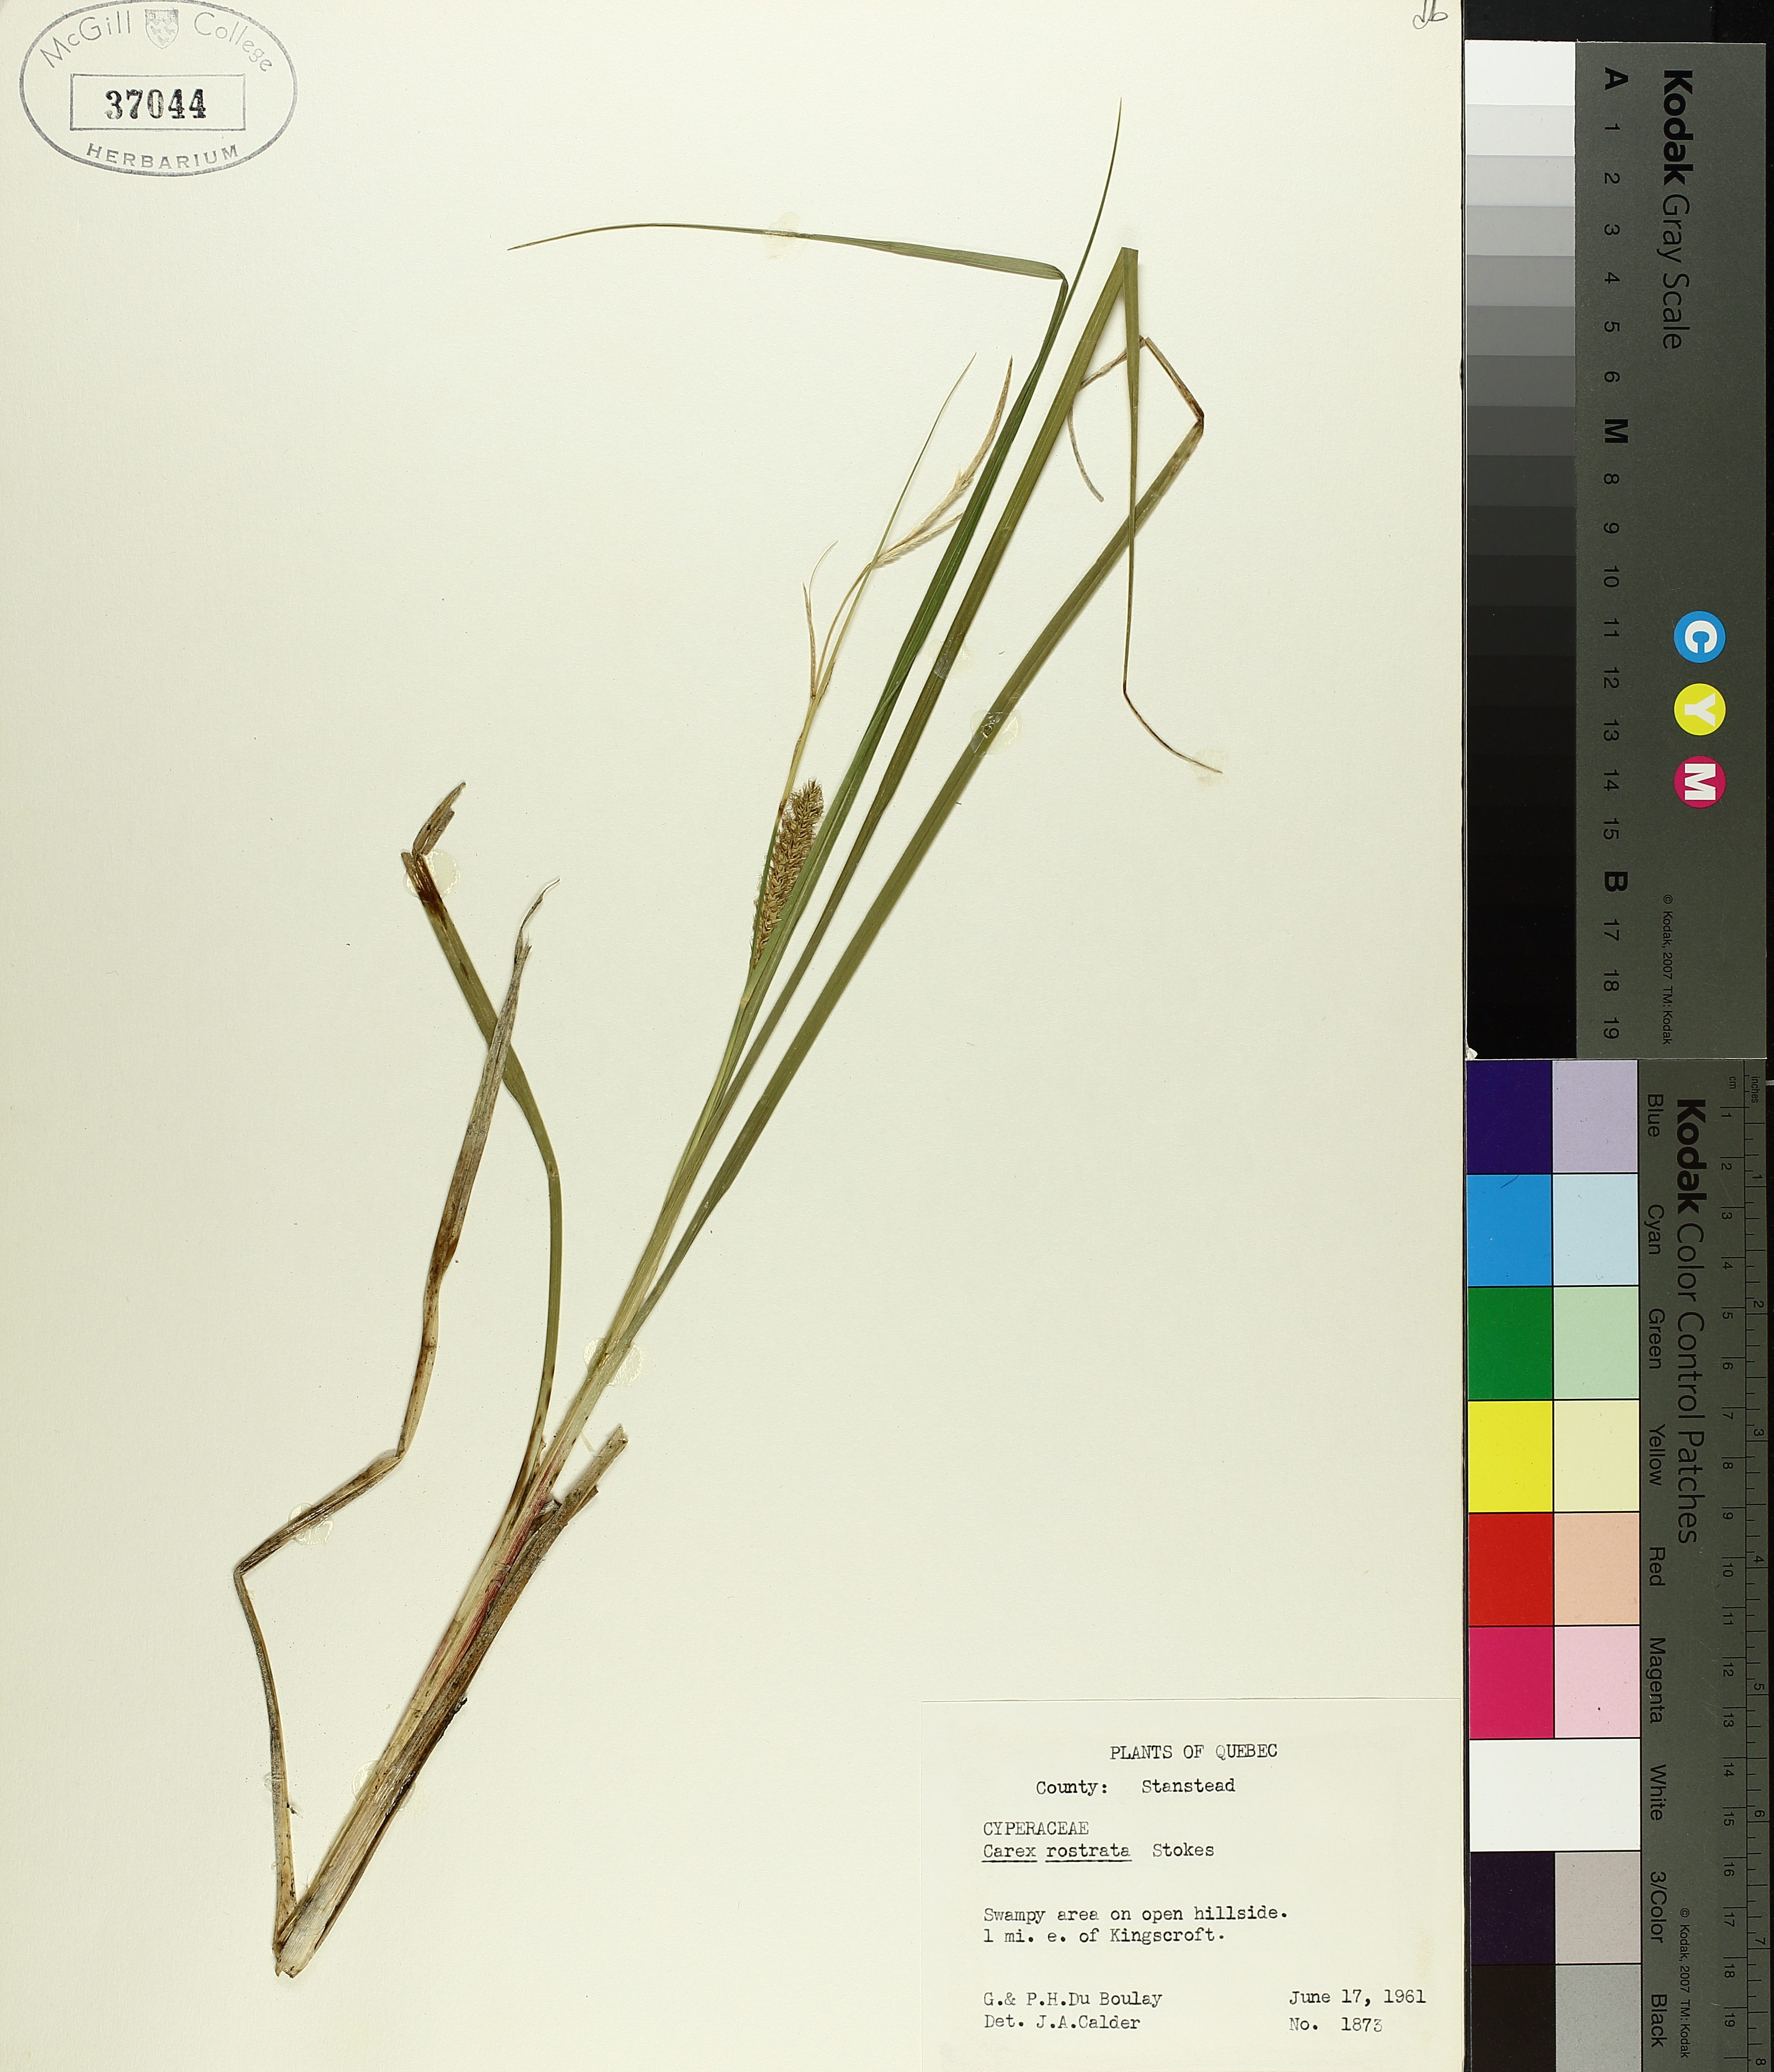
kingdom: Plantae
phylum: Tracheophyta
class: Liliopsida
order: Poales
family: Cyperaceae
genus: Carex
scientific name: Carex rostrata
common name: Bottle sedge
